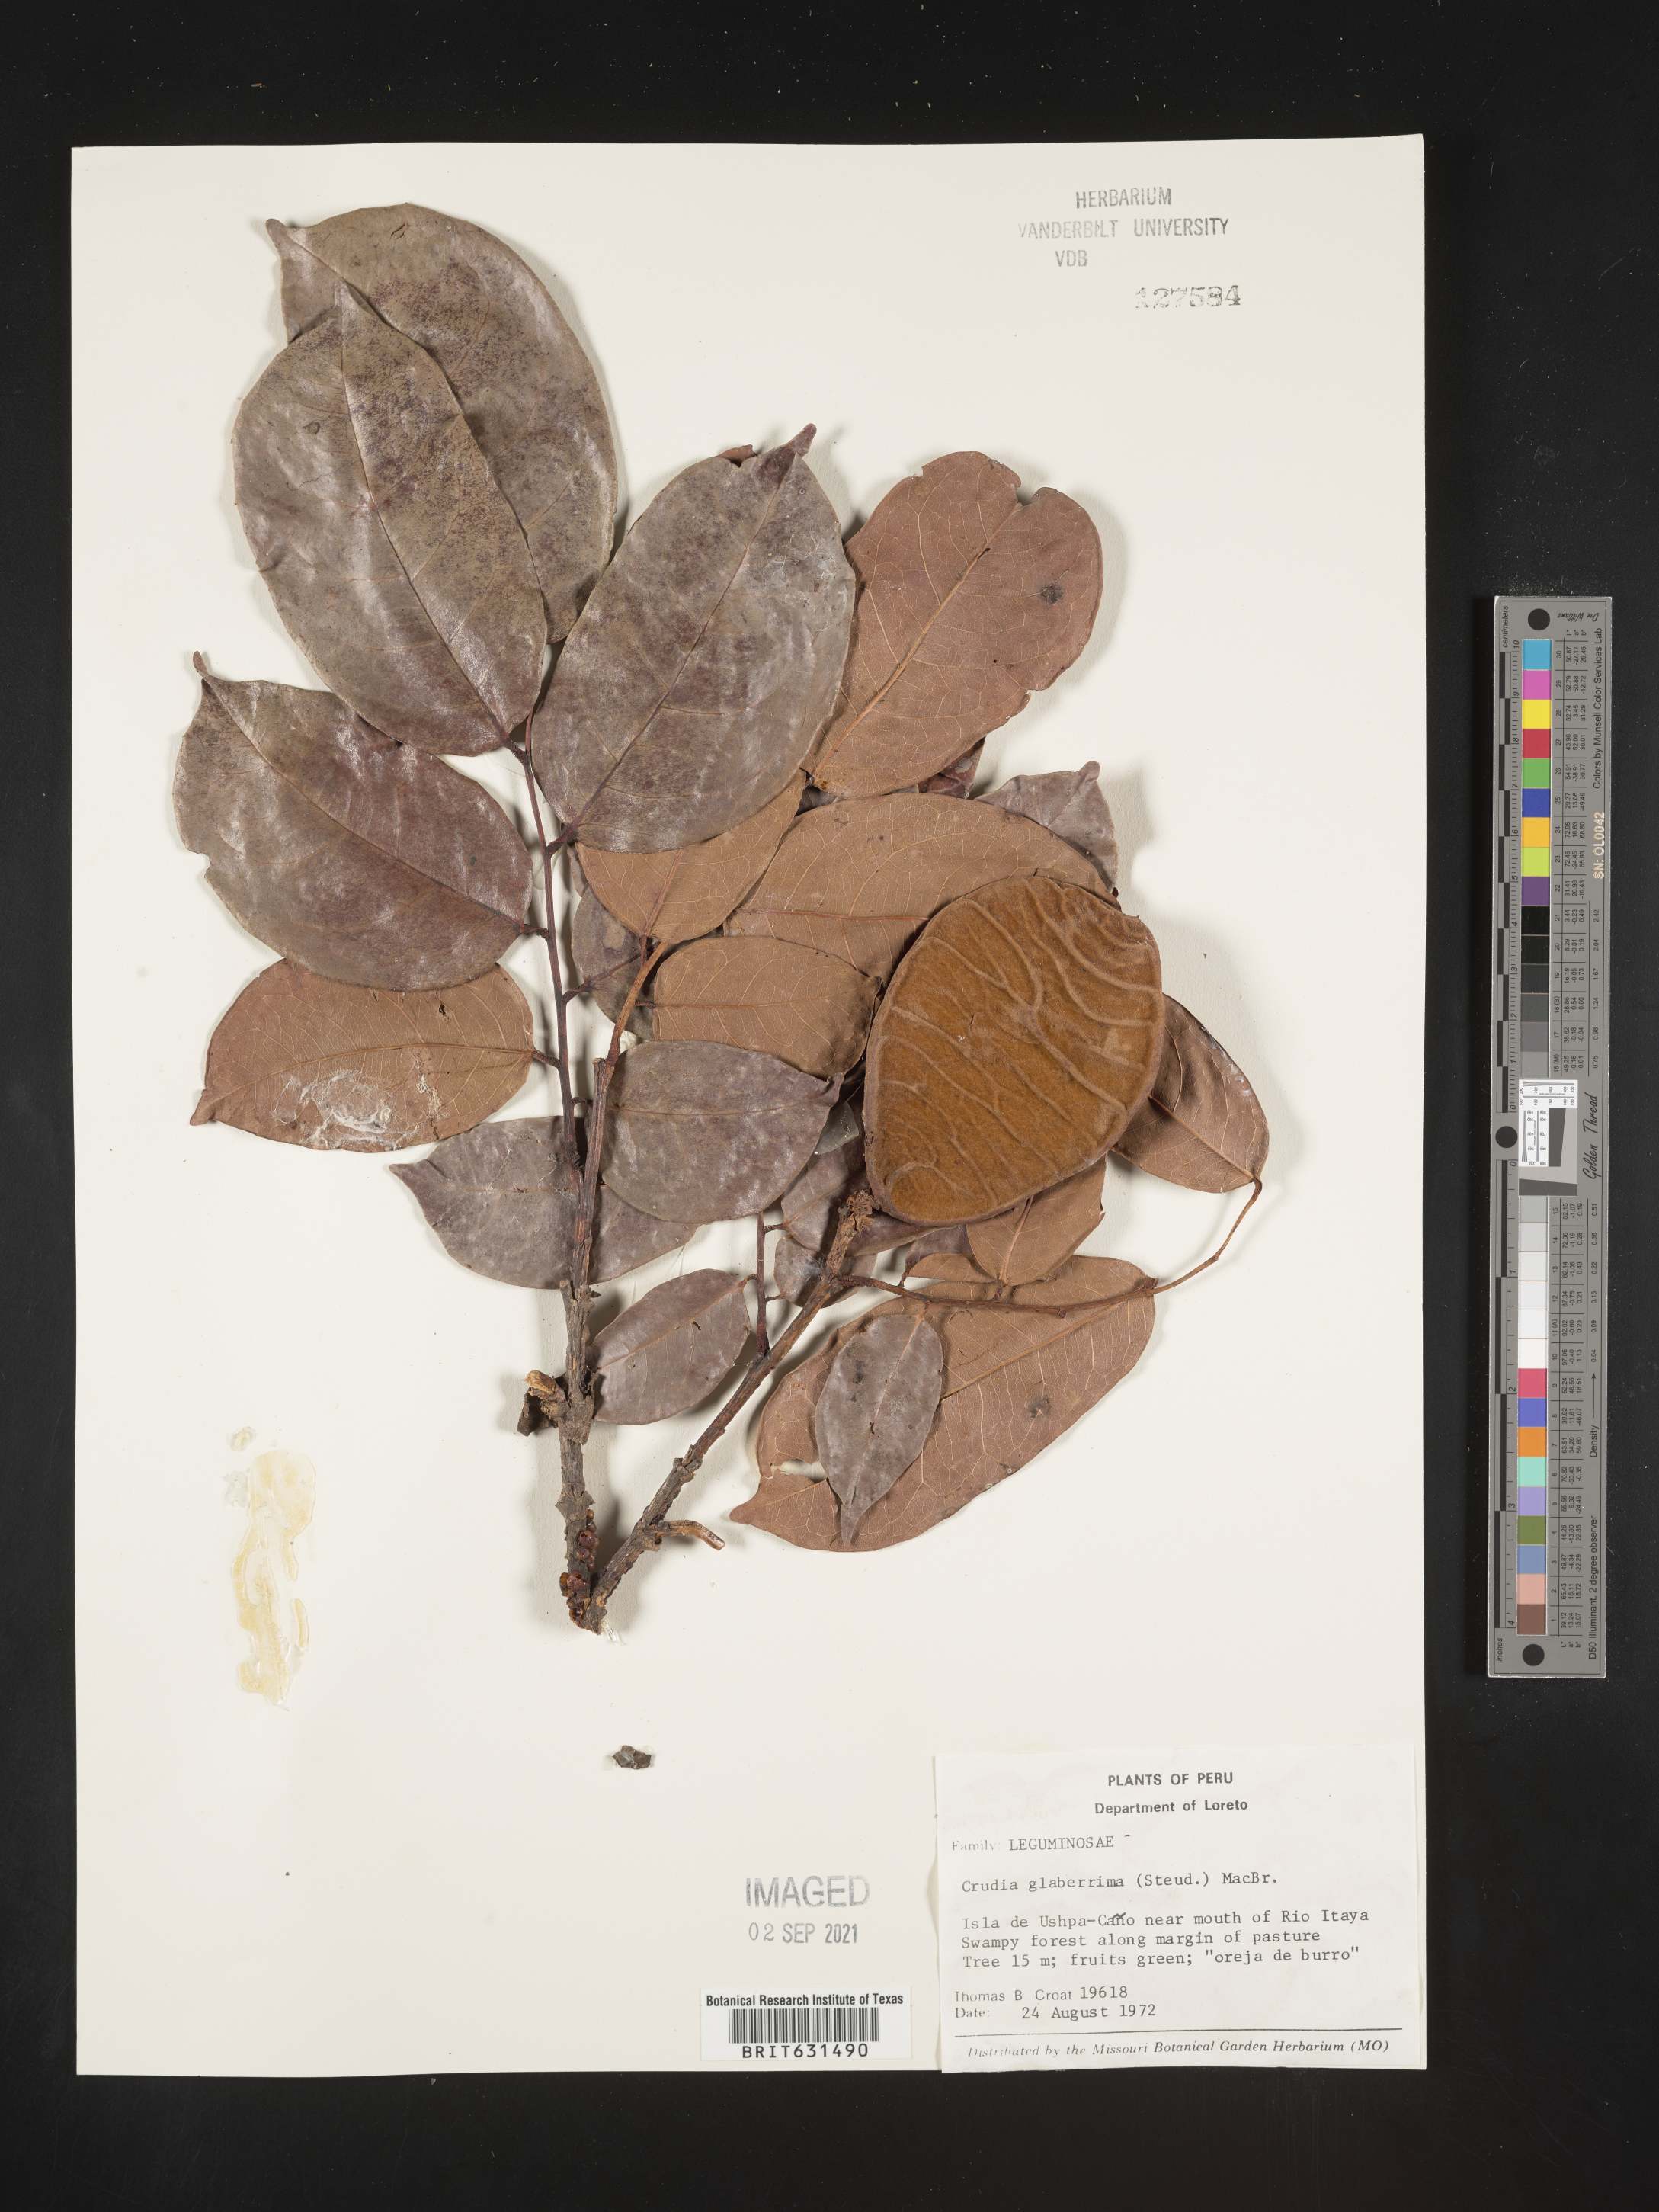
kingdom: Plantae
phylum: Tracheophyta
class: Magnoliopsida
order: Fabales
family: Fabaceae
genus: Crudia
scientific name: Crudia glaberrima
